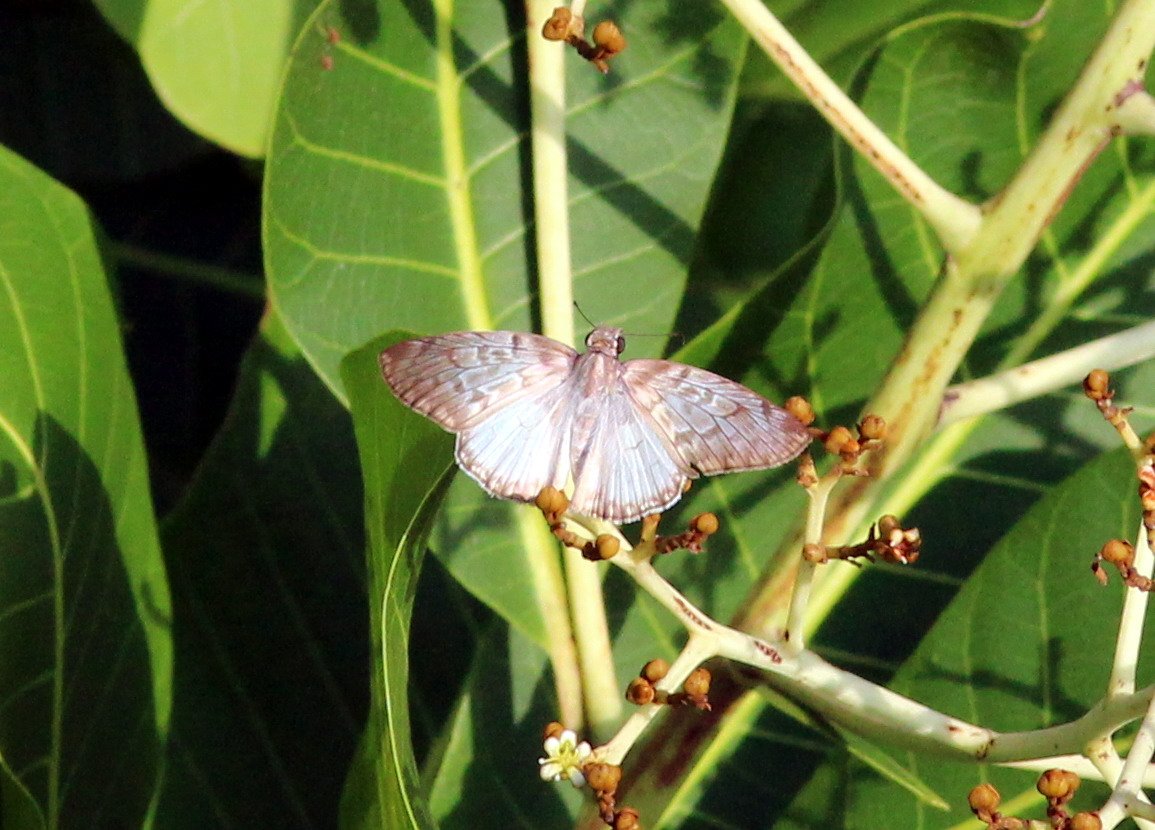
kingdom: Animalia
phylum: Arthropoda
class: Insecta
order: Lepidoptera
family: Hesperiidae
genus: Mylon
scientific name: Mylon jason
